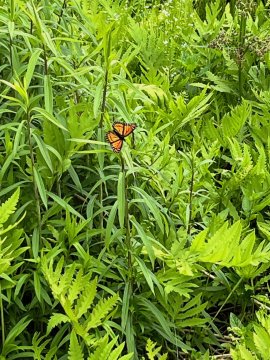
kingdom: Animalia
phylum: Arthropoda
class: Insecta
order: Lepidoptera
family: Nymphalidae
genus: Limenitis
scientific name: Limenitis archippus
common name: Viceroy
